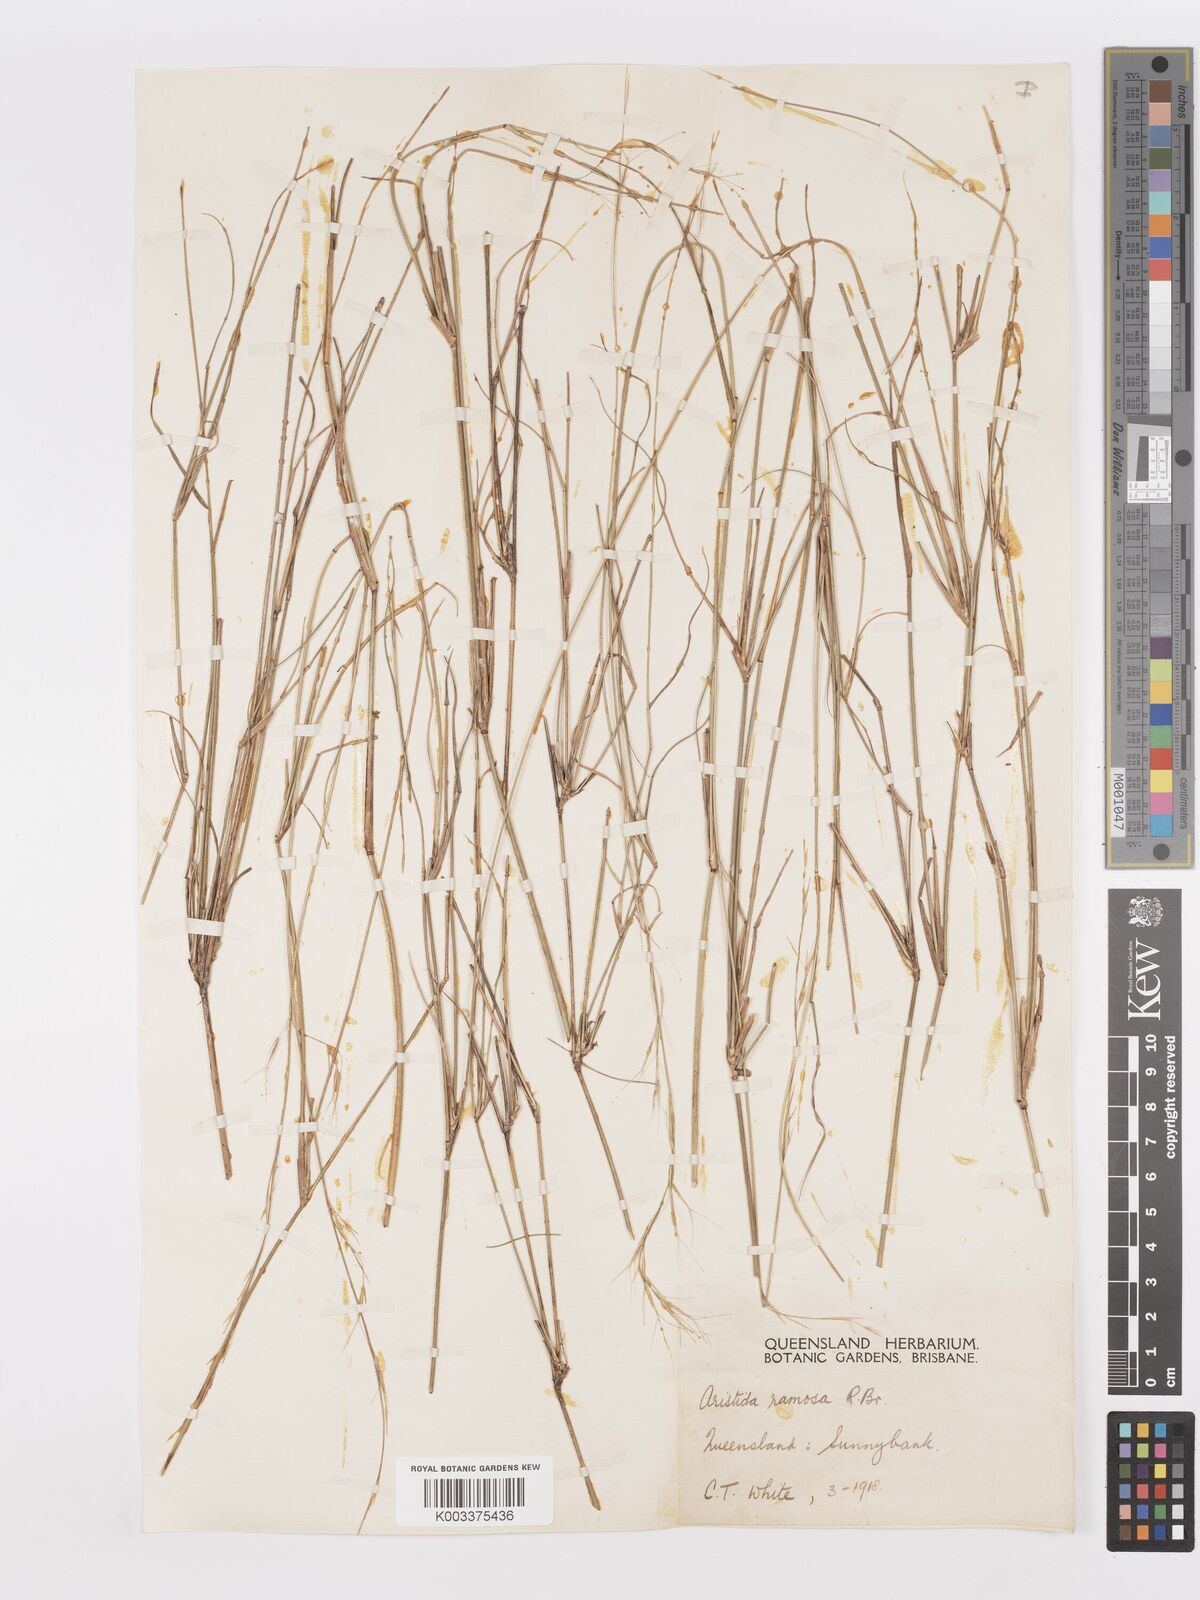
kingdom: Plantae
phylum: Tracheophyta
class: Liliopsida
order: Poales
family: Poaceae
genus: Aristida
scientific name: Aristida ramosa
